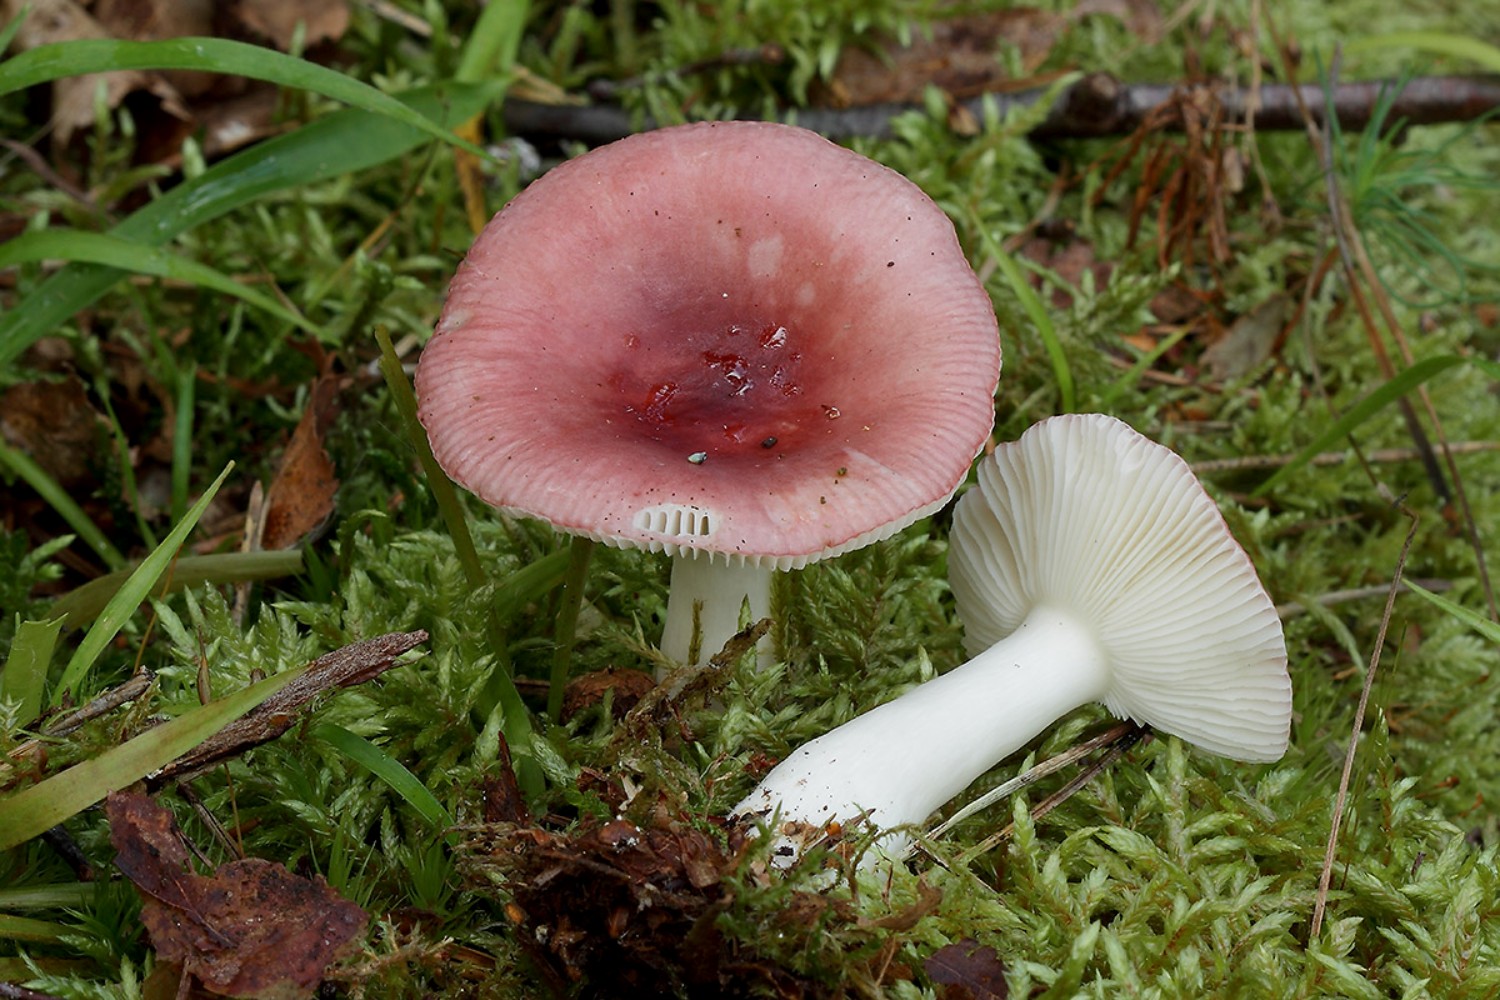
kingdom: Fungi
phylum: Basidiomycota
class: Agaricomycetes
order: Russulales
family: Russulaceae
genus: Russula
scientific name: Russula nitida
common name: året skørhat
